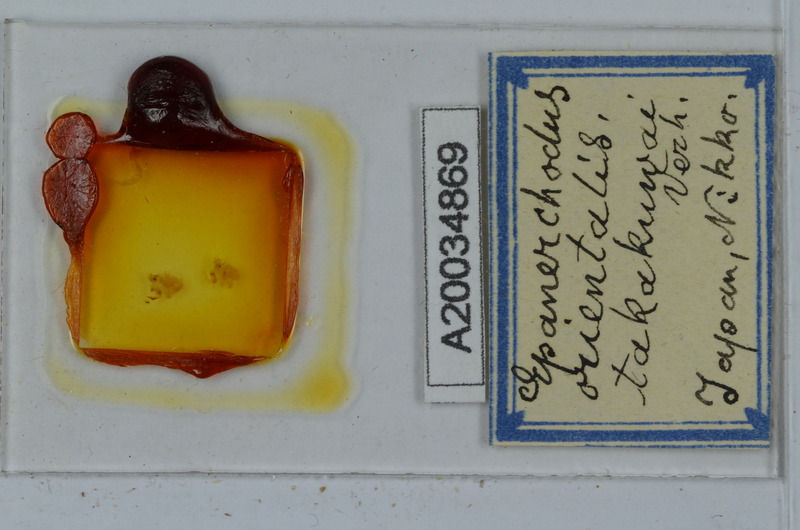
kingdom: Animalia
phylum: Arthropoda
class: Diplopoda
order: Polydesmida
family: Polydesmidae
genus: Epanerchodus
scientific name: Epanerchodus orientalis
